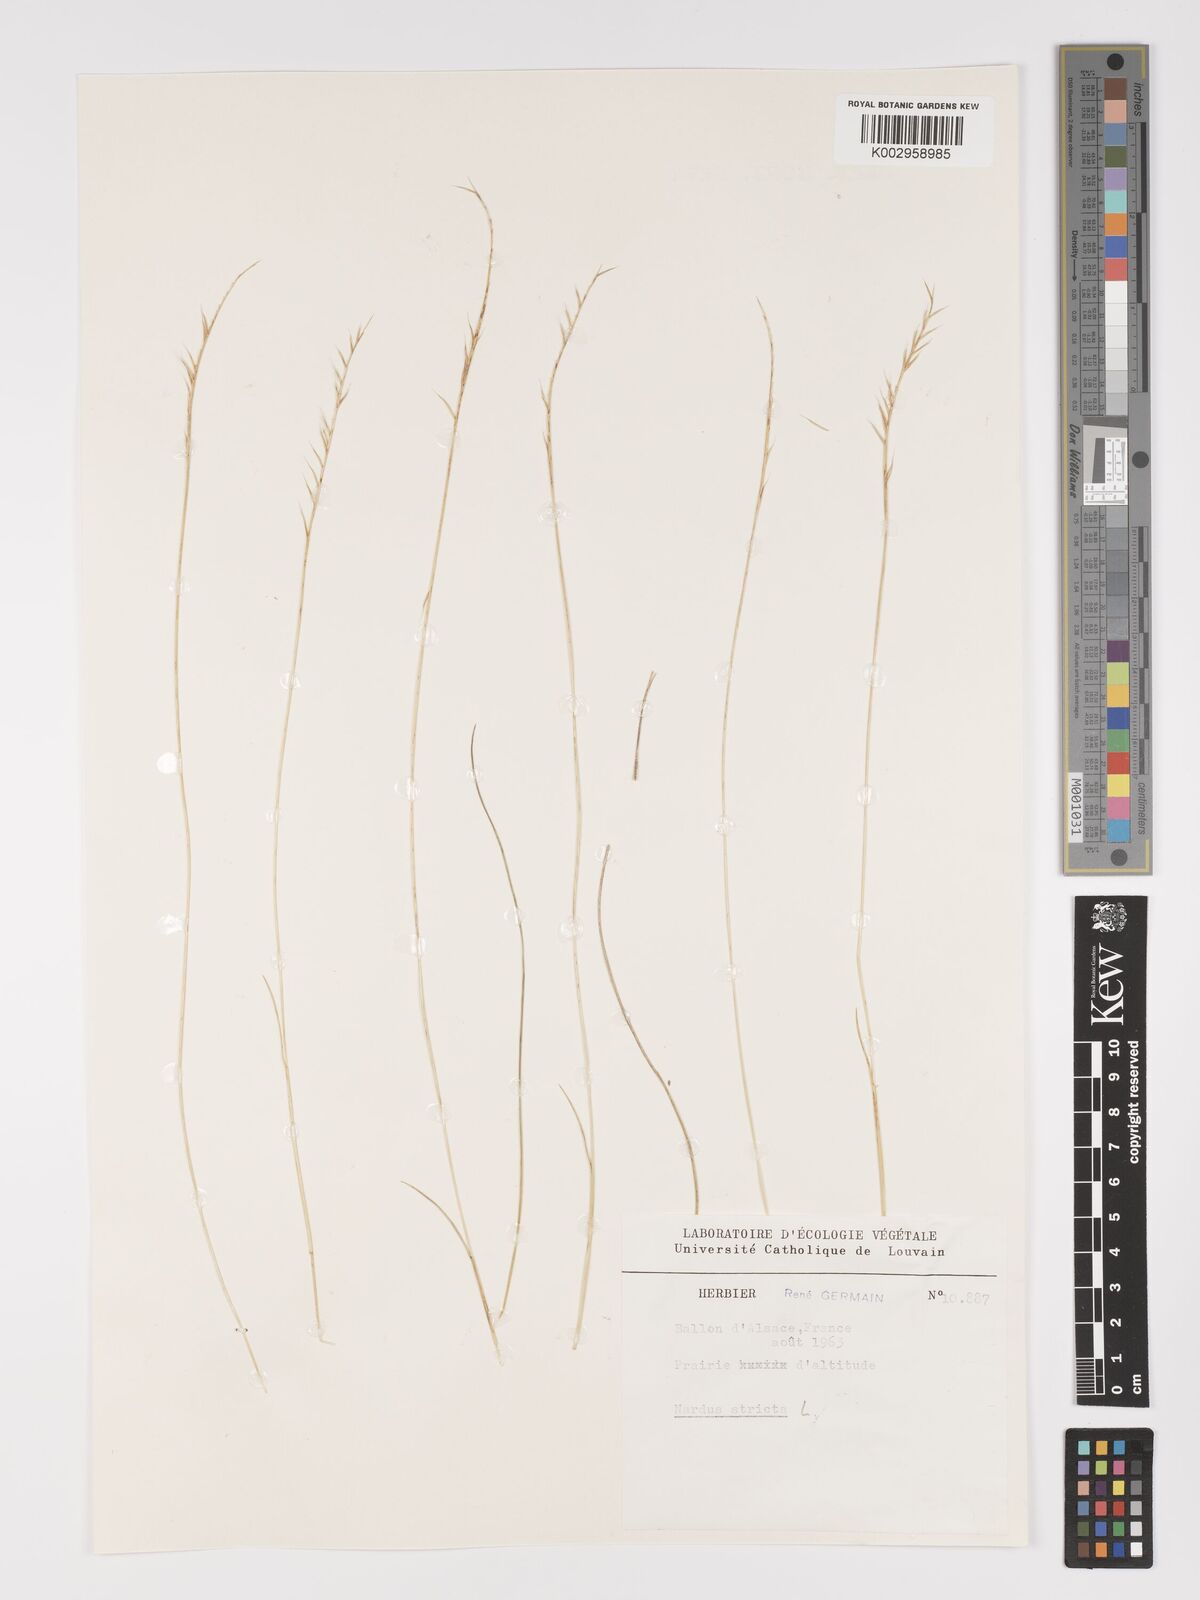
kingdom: Plantae
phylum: Tracheophyta
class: Liliopsida
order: Poales
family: Poaceae
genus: Nardus
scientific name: Nardus stricta
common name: Mat-grass
